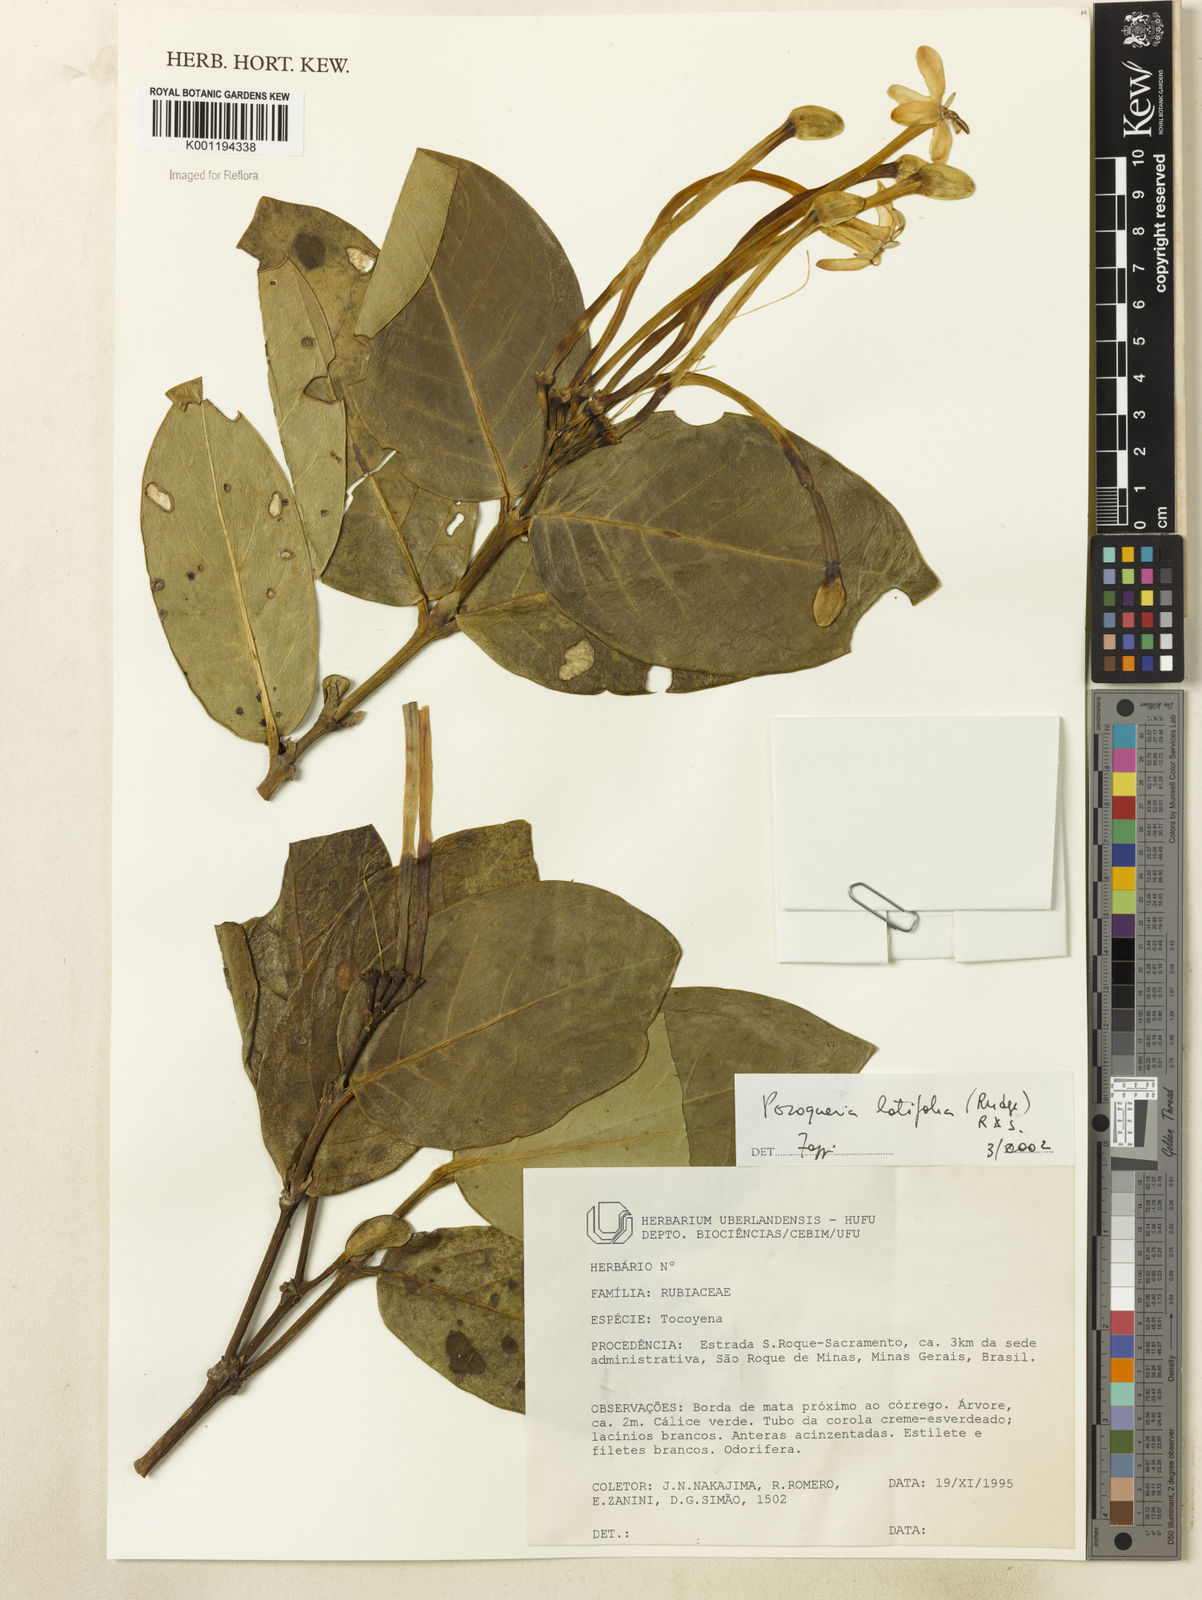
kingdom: Plantae
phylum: Tracheophyta
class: Magnoliopsida
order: Gentianales
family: Rubiaceae
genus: Posoqueria
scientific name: Posoqueria latifolia
